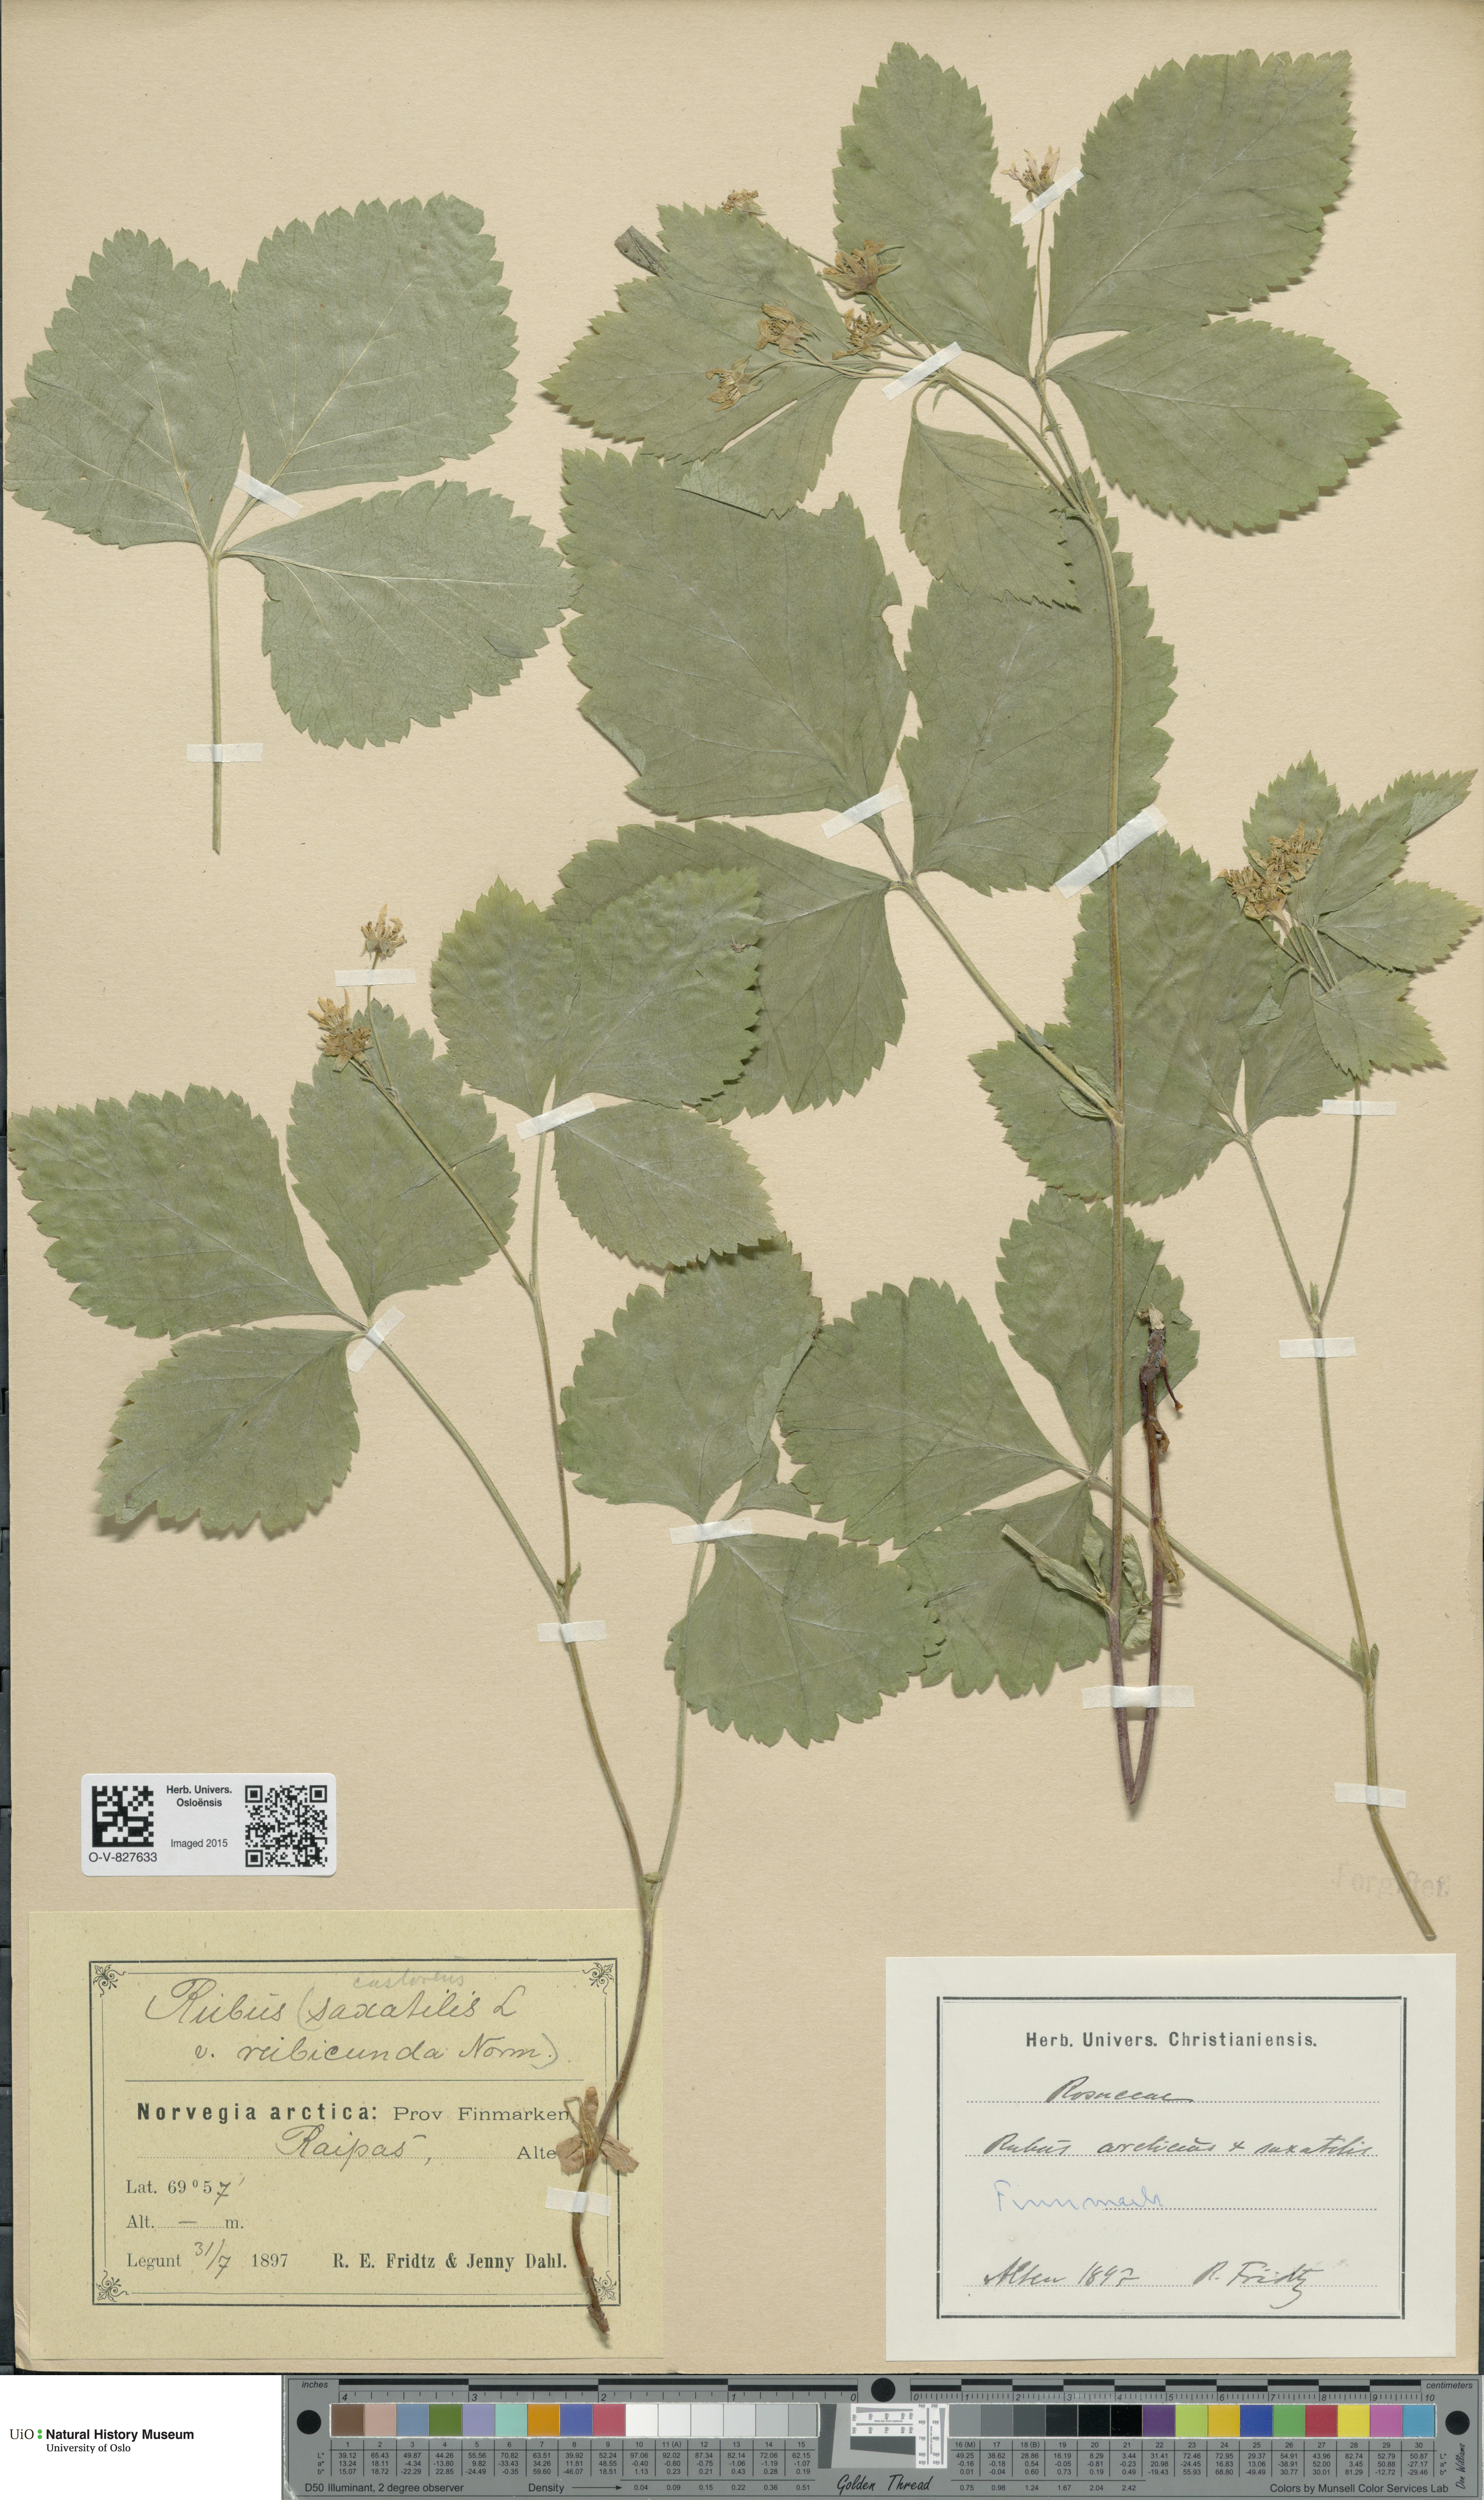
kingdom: Plantae
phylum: Tracheophyta
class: Magnoliopsida
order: Rosales
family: Rosaceae
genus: Rubus
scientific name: Rubus
